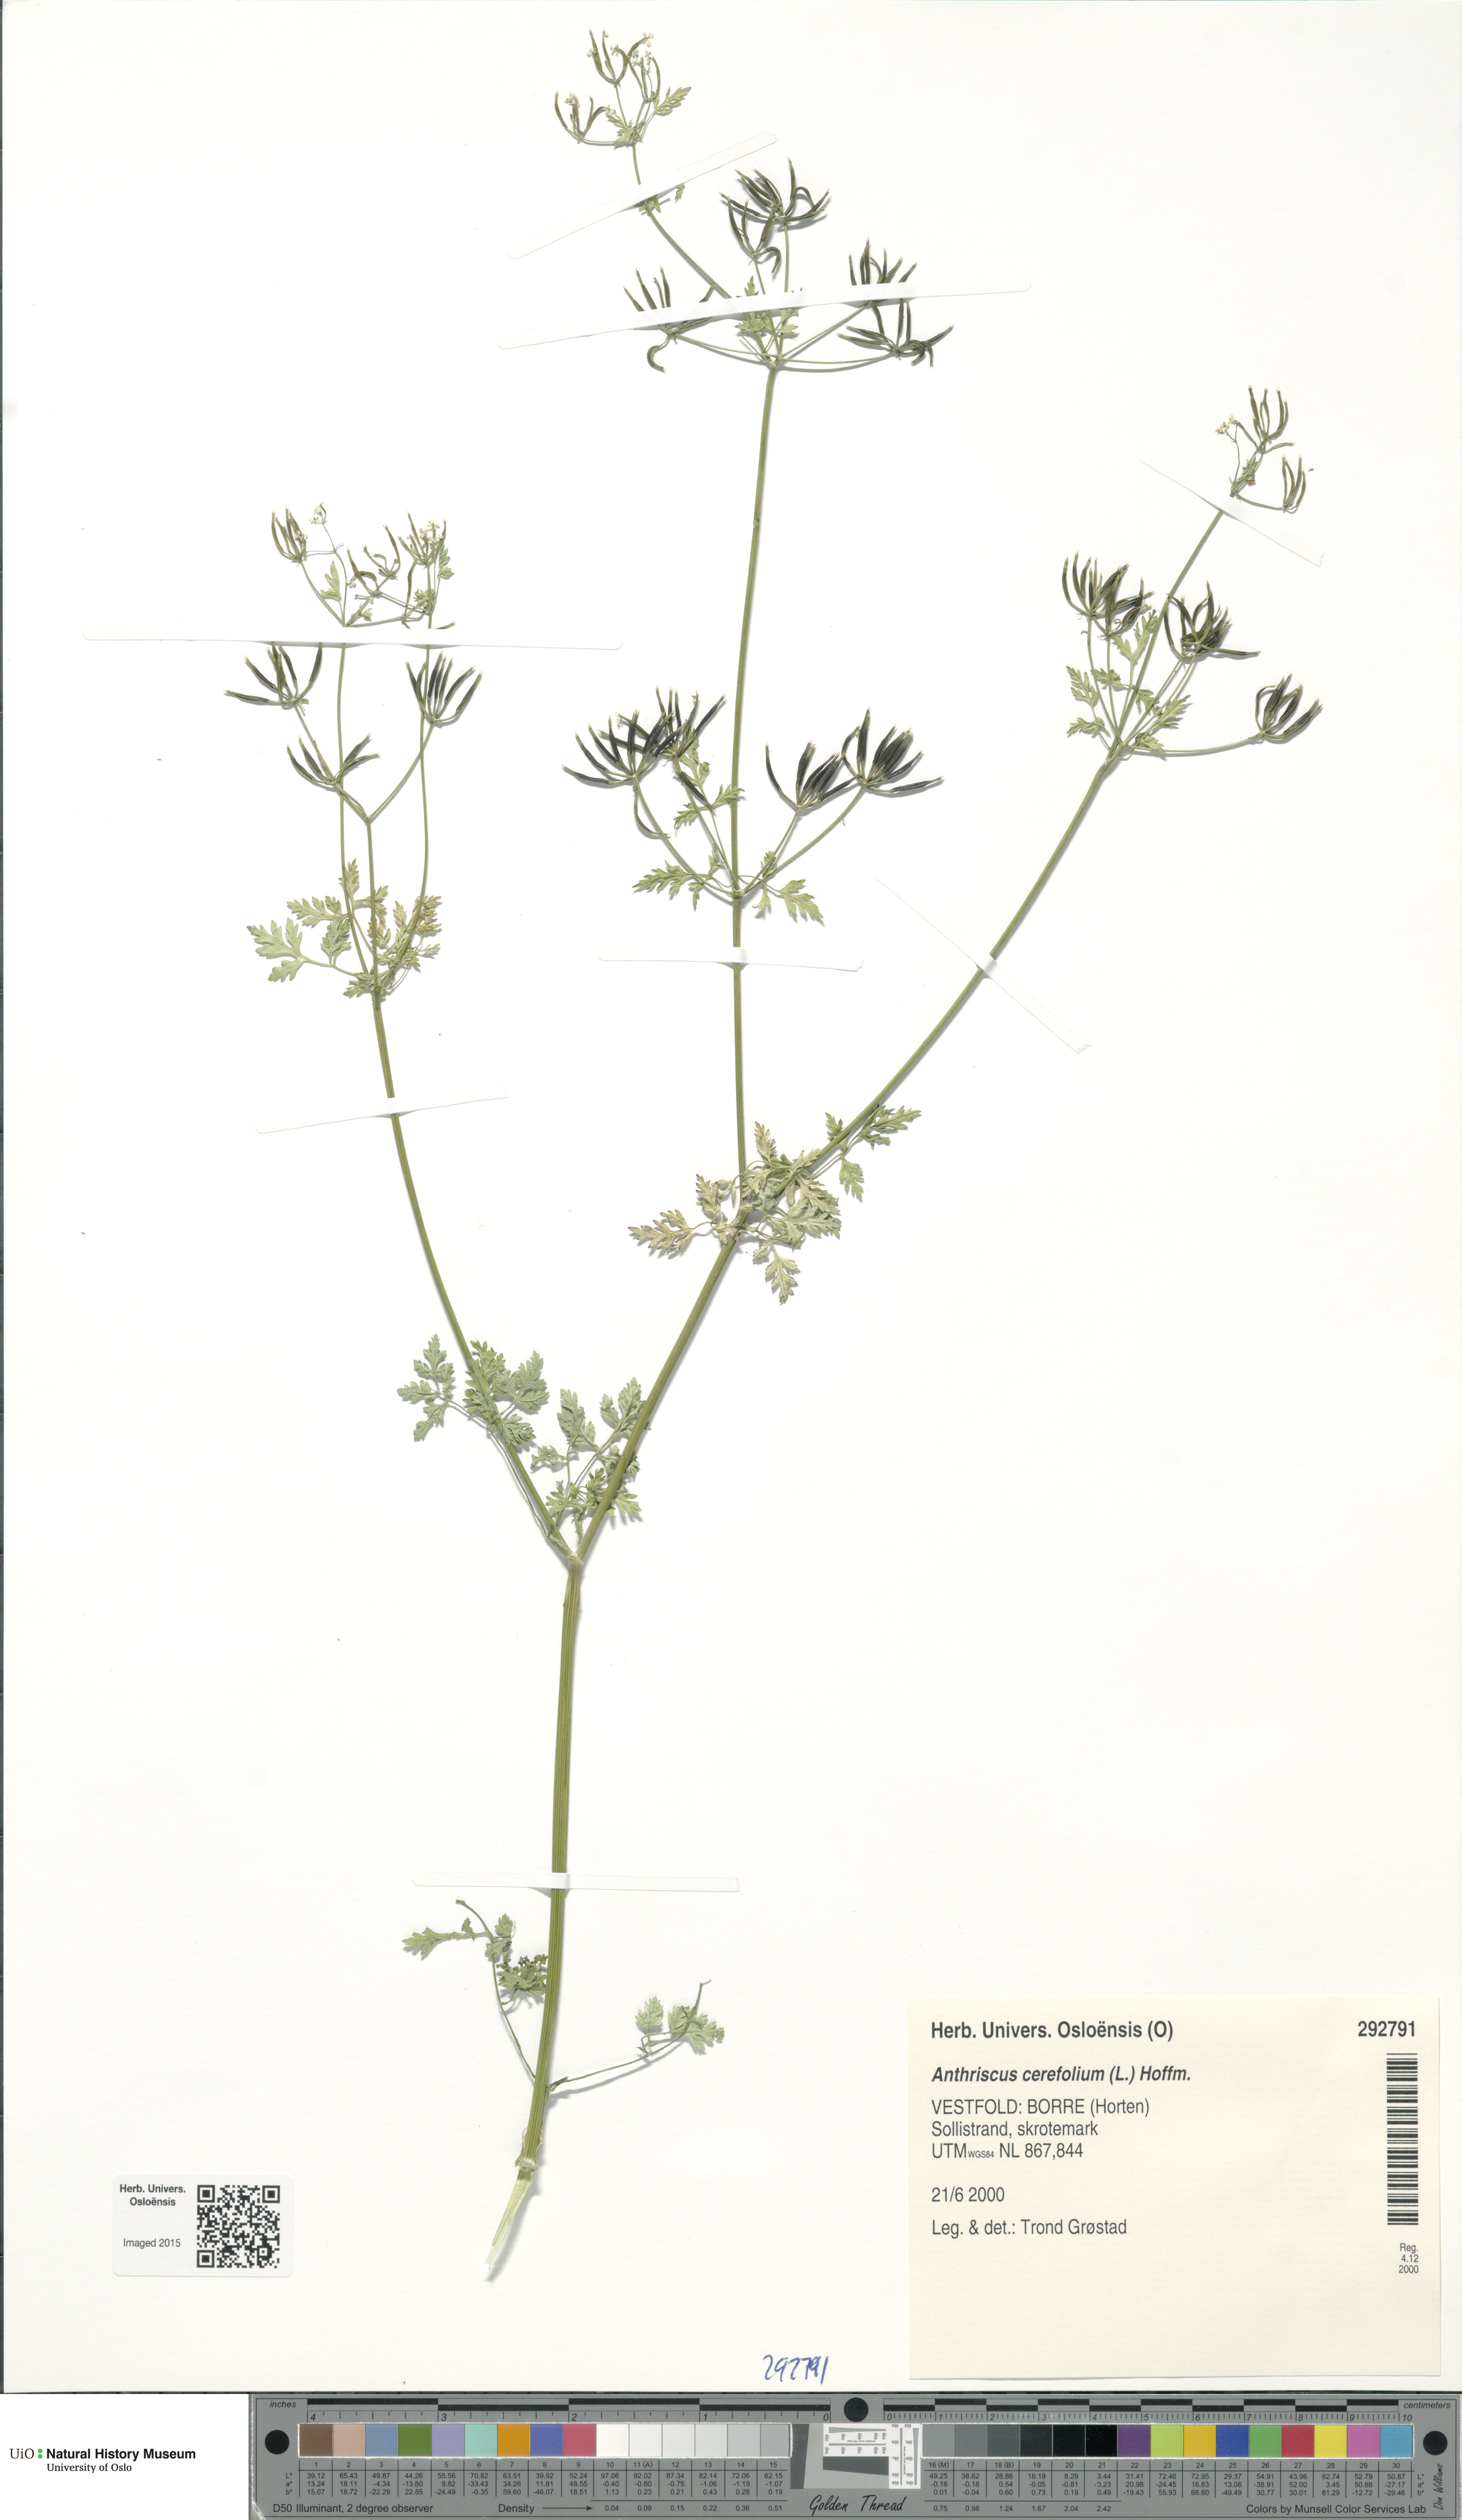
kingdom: Plantae
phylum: Tracheophyta
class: Magnoliopsida
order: Apiales
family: Apiaceae
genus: Anthriscus
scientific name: Anthriscus cerefolium
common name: Garden chervil
